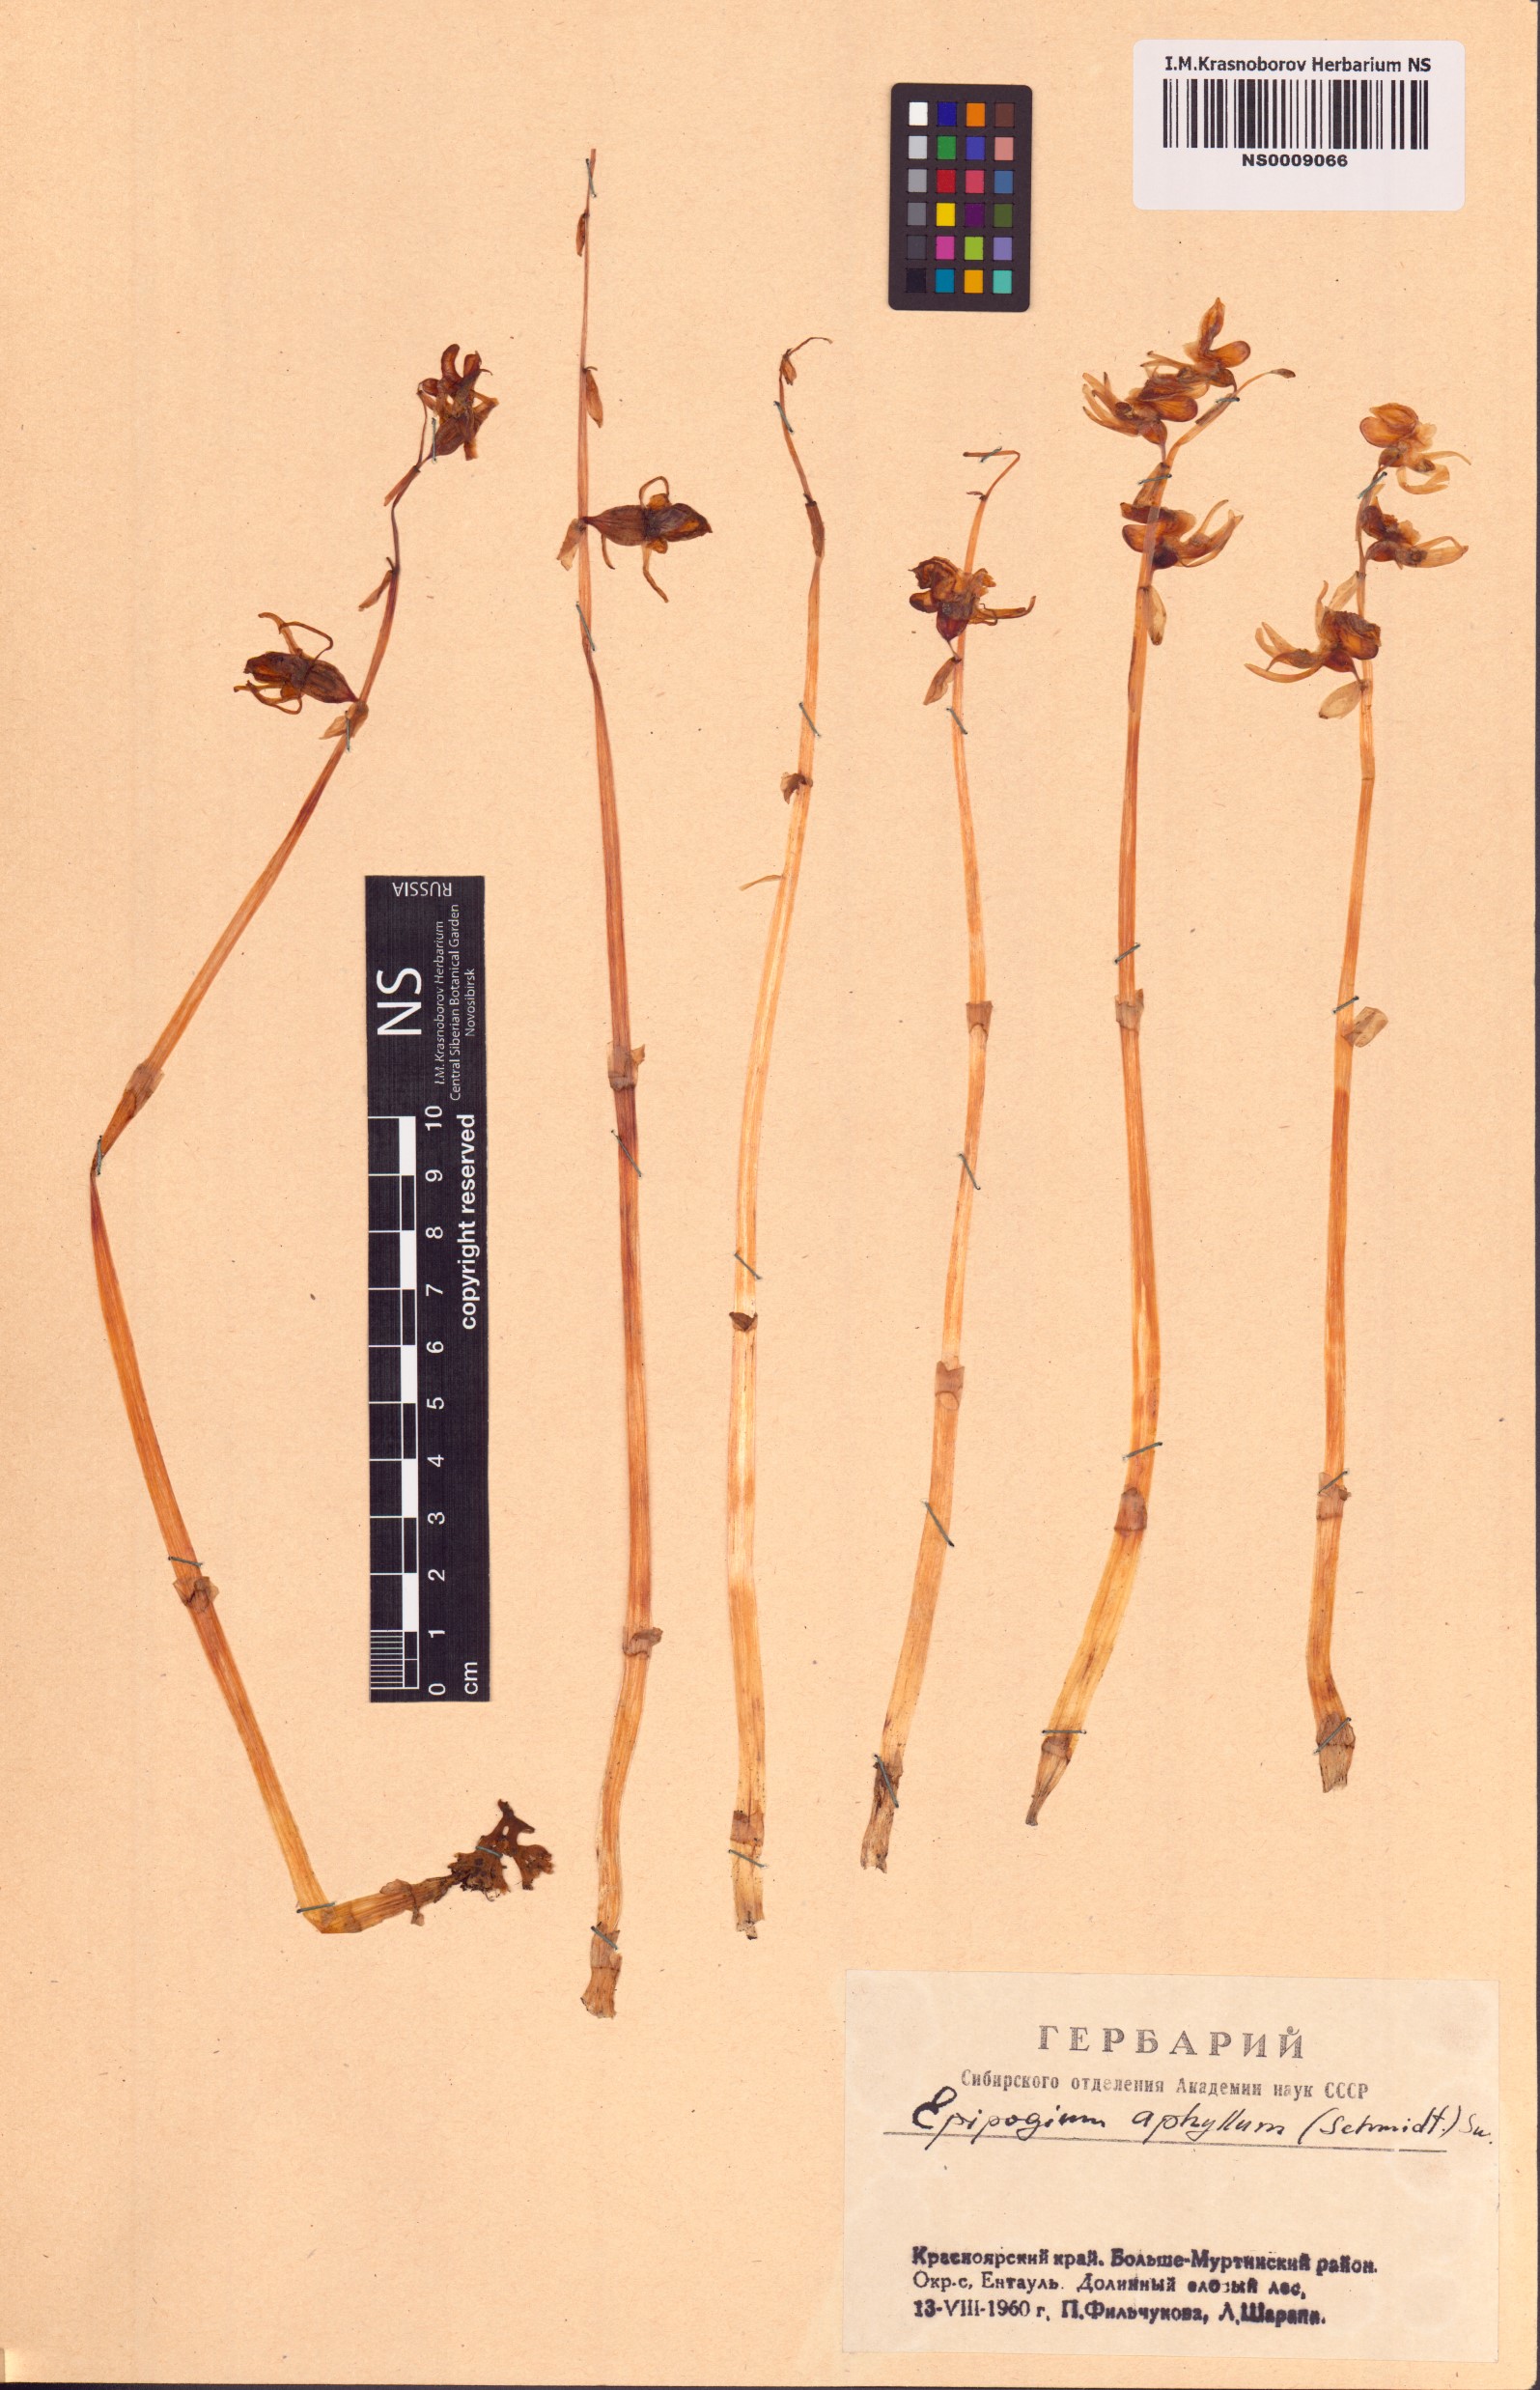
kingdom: Plantae
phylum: Tracheophyta
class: Liliopsida
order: Asparagales
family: Orchidaceae
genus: Epipogium
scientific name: Epipogium aphyllum
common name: Ghost orchid
